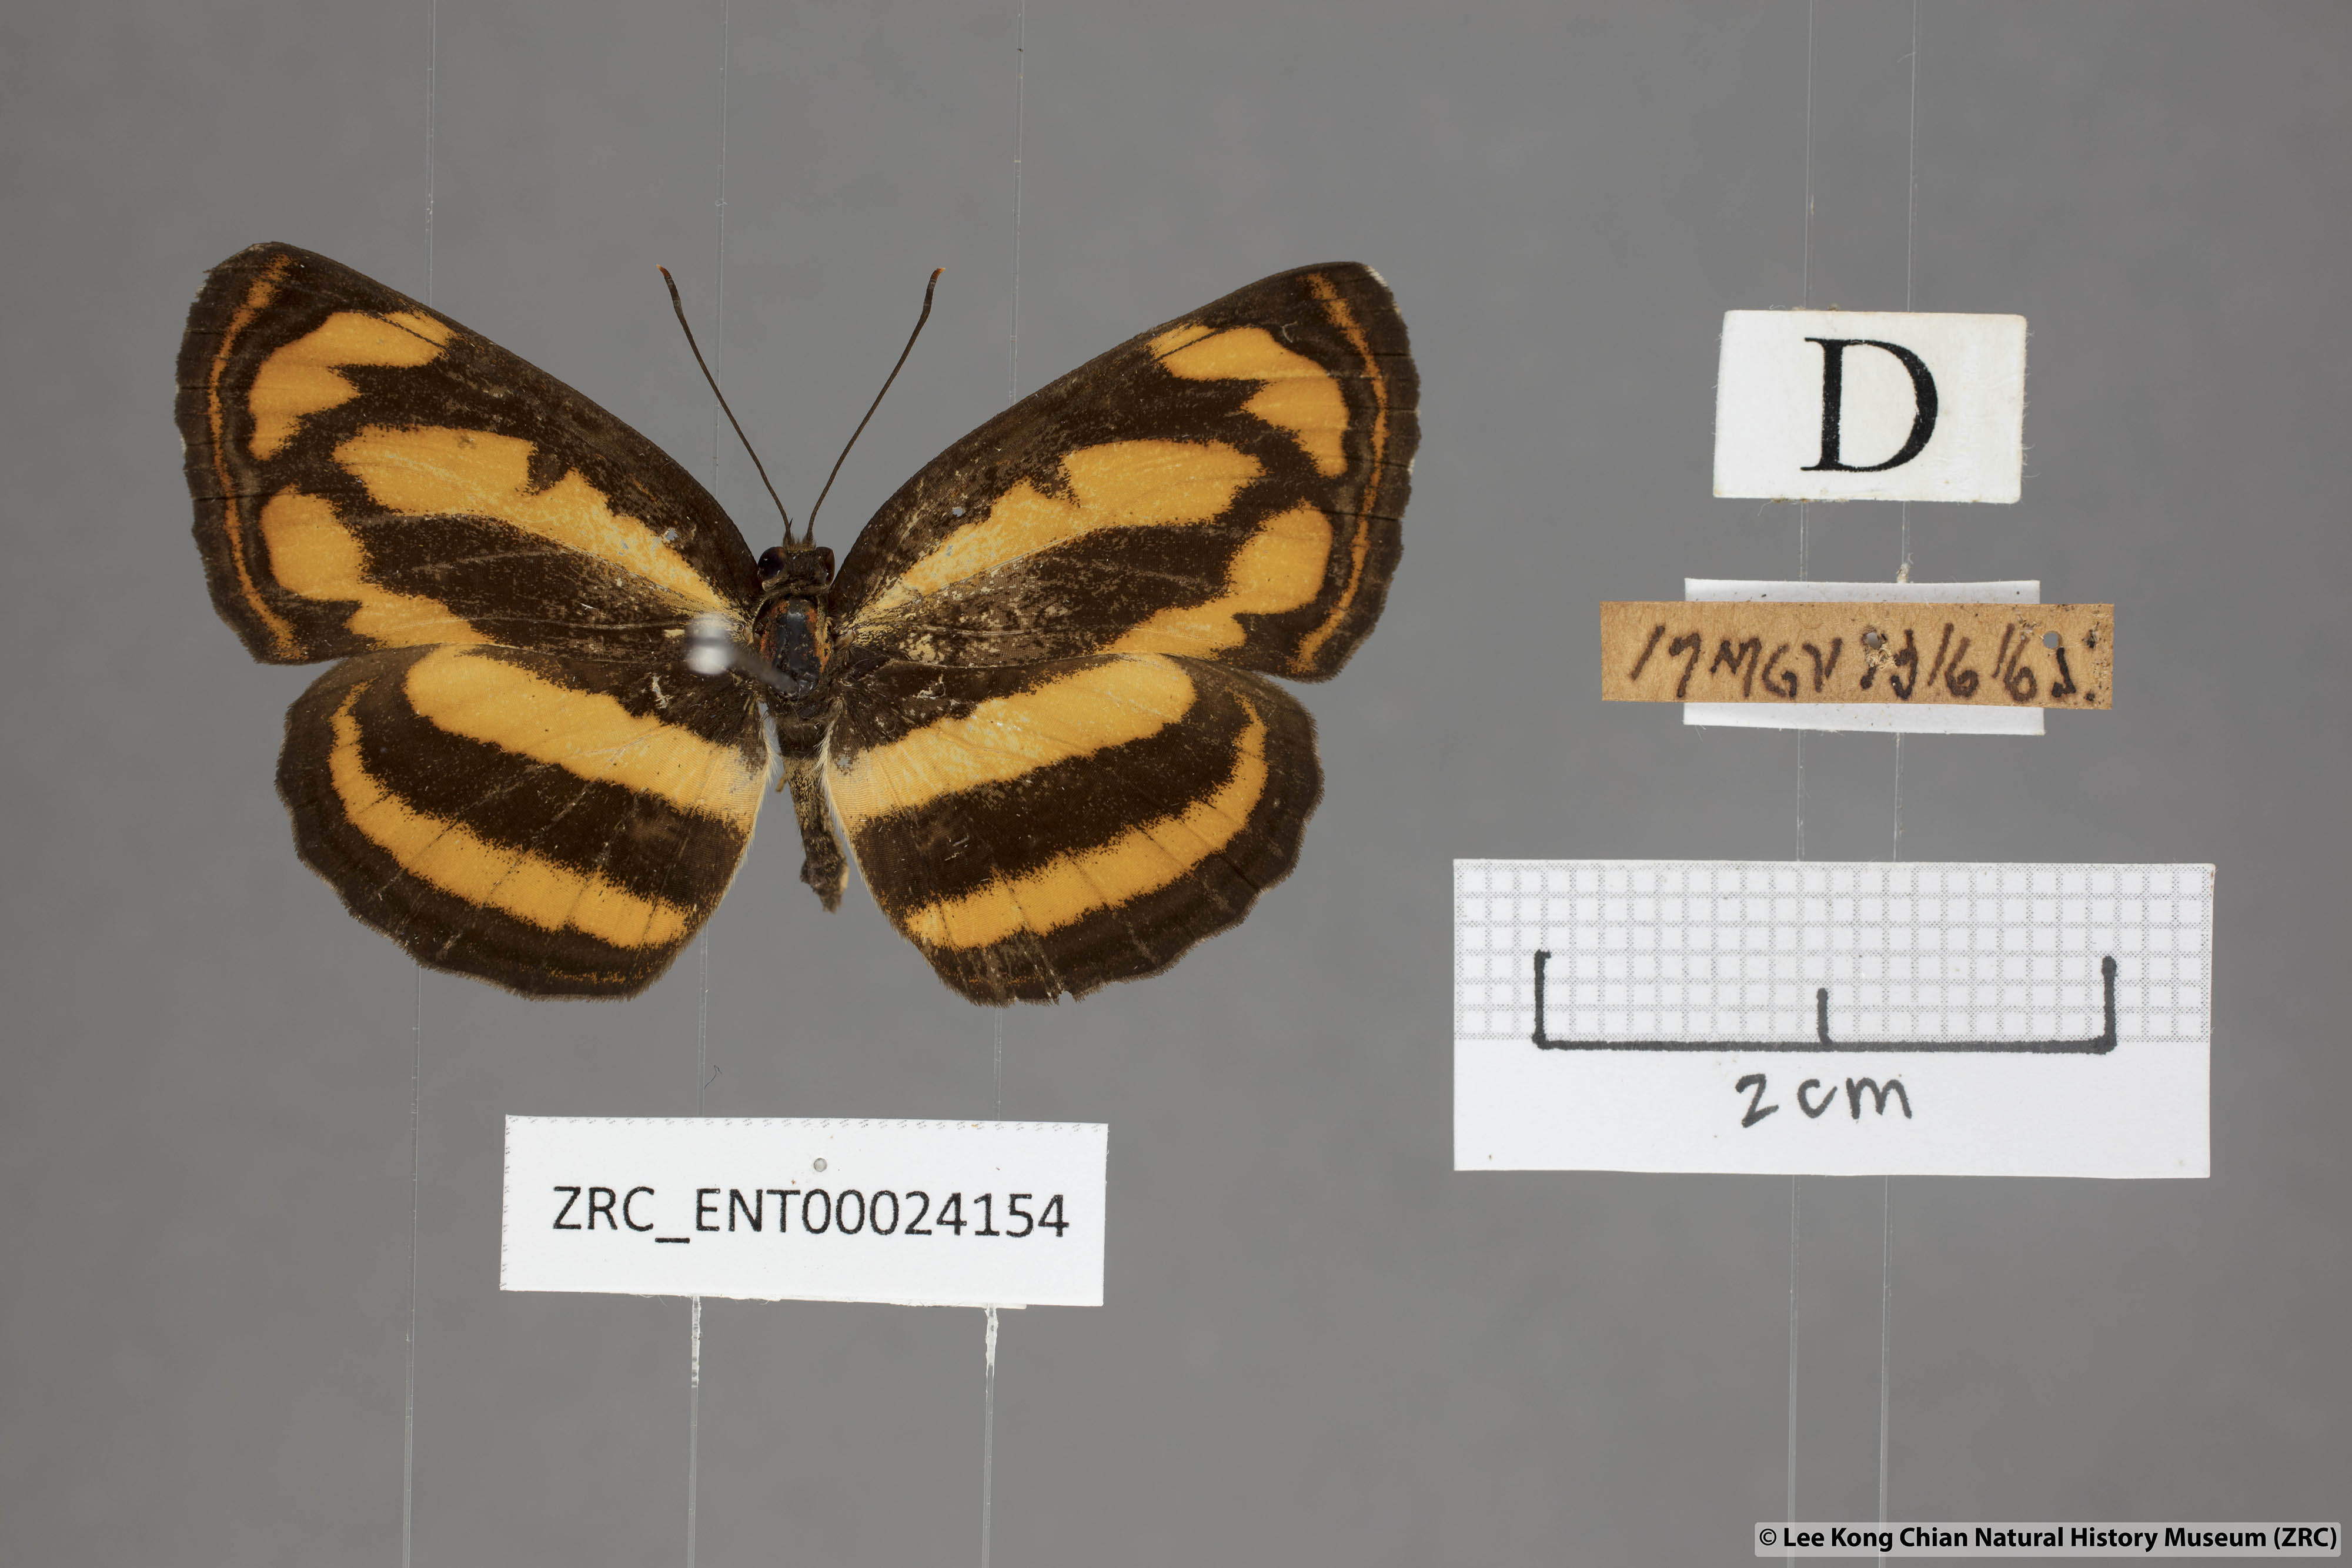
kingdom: Animalia
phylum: Arthropoda
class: Insecta
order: Lepidoptera
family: Nymphalidae
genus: Pantoporia
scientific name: Pantoporia sandaka
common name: Extra lascar
